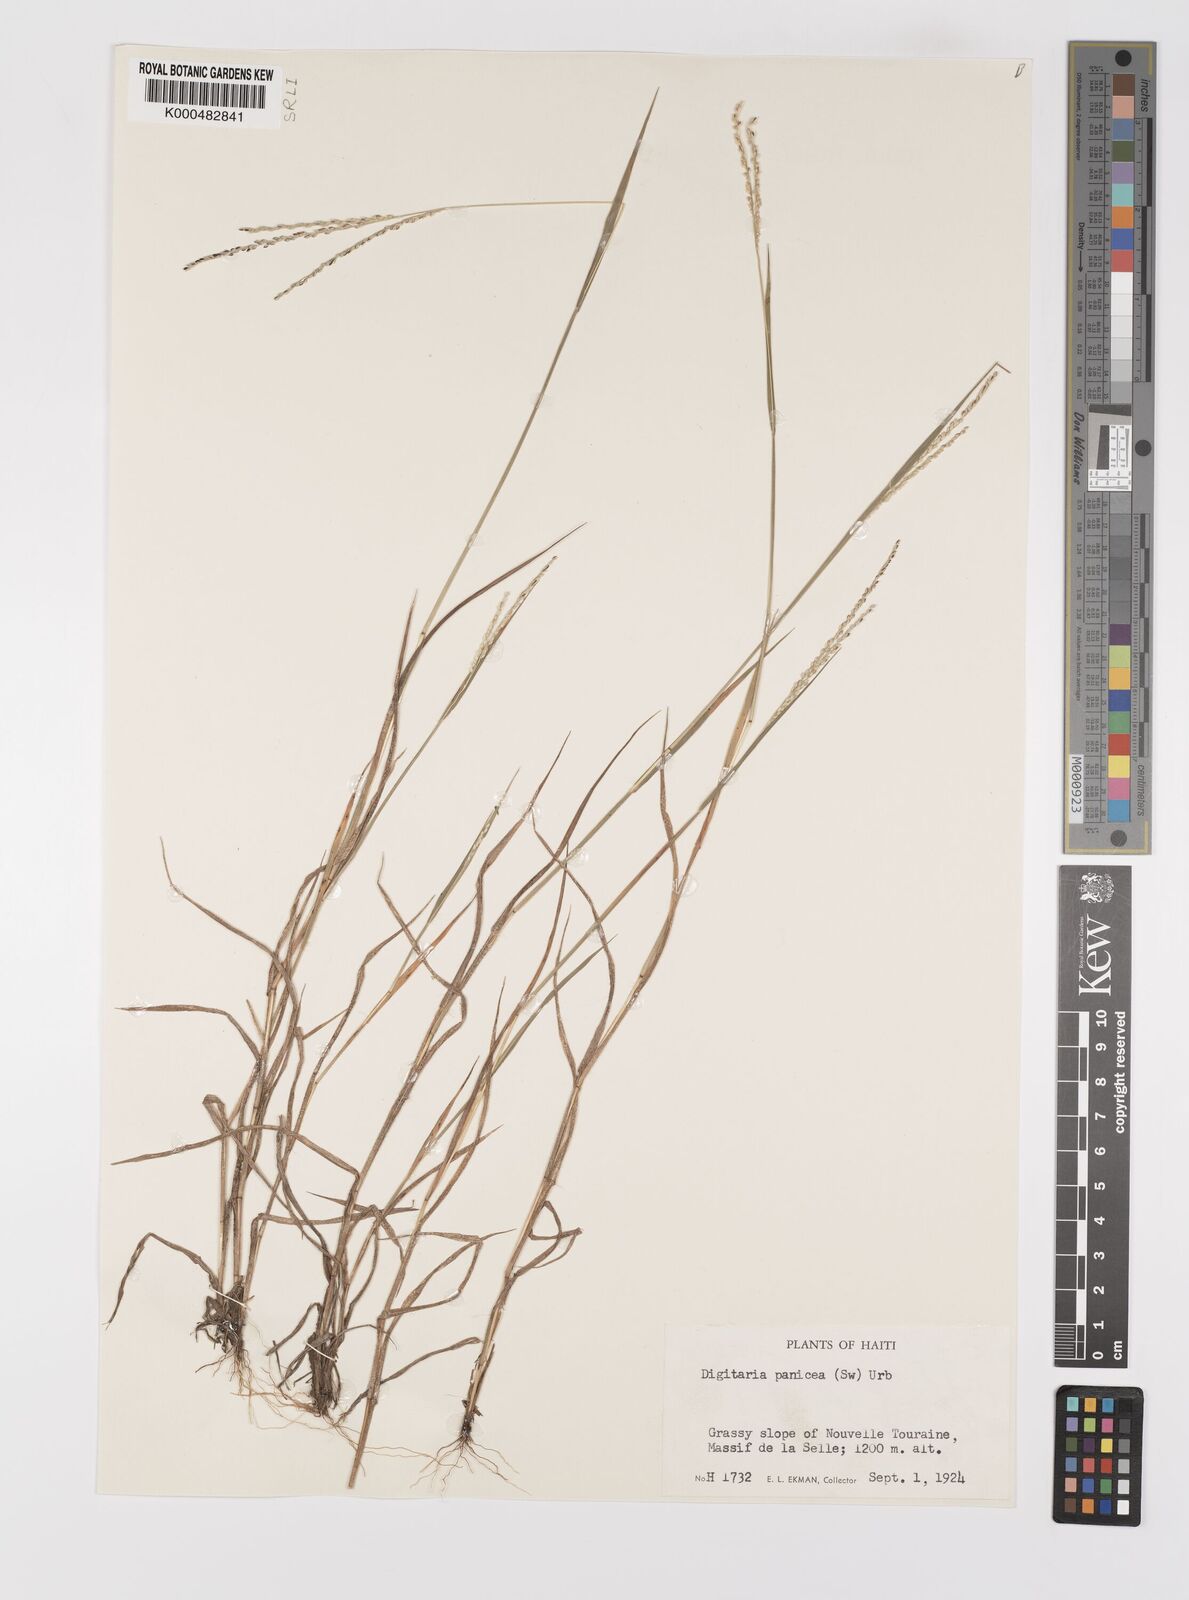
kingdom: Plantae
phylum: Tracheophyta
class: Liliopsida
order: Poales
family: Poaceae
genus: Digitaria
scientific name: Digitaria curvinervis
